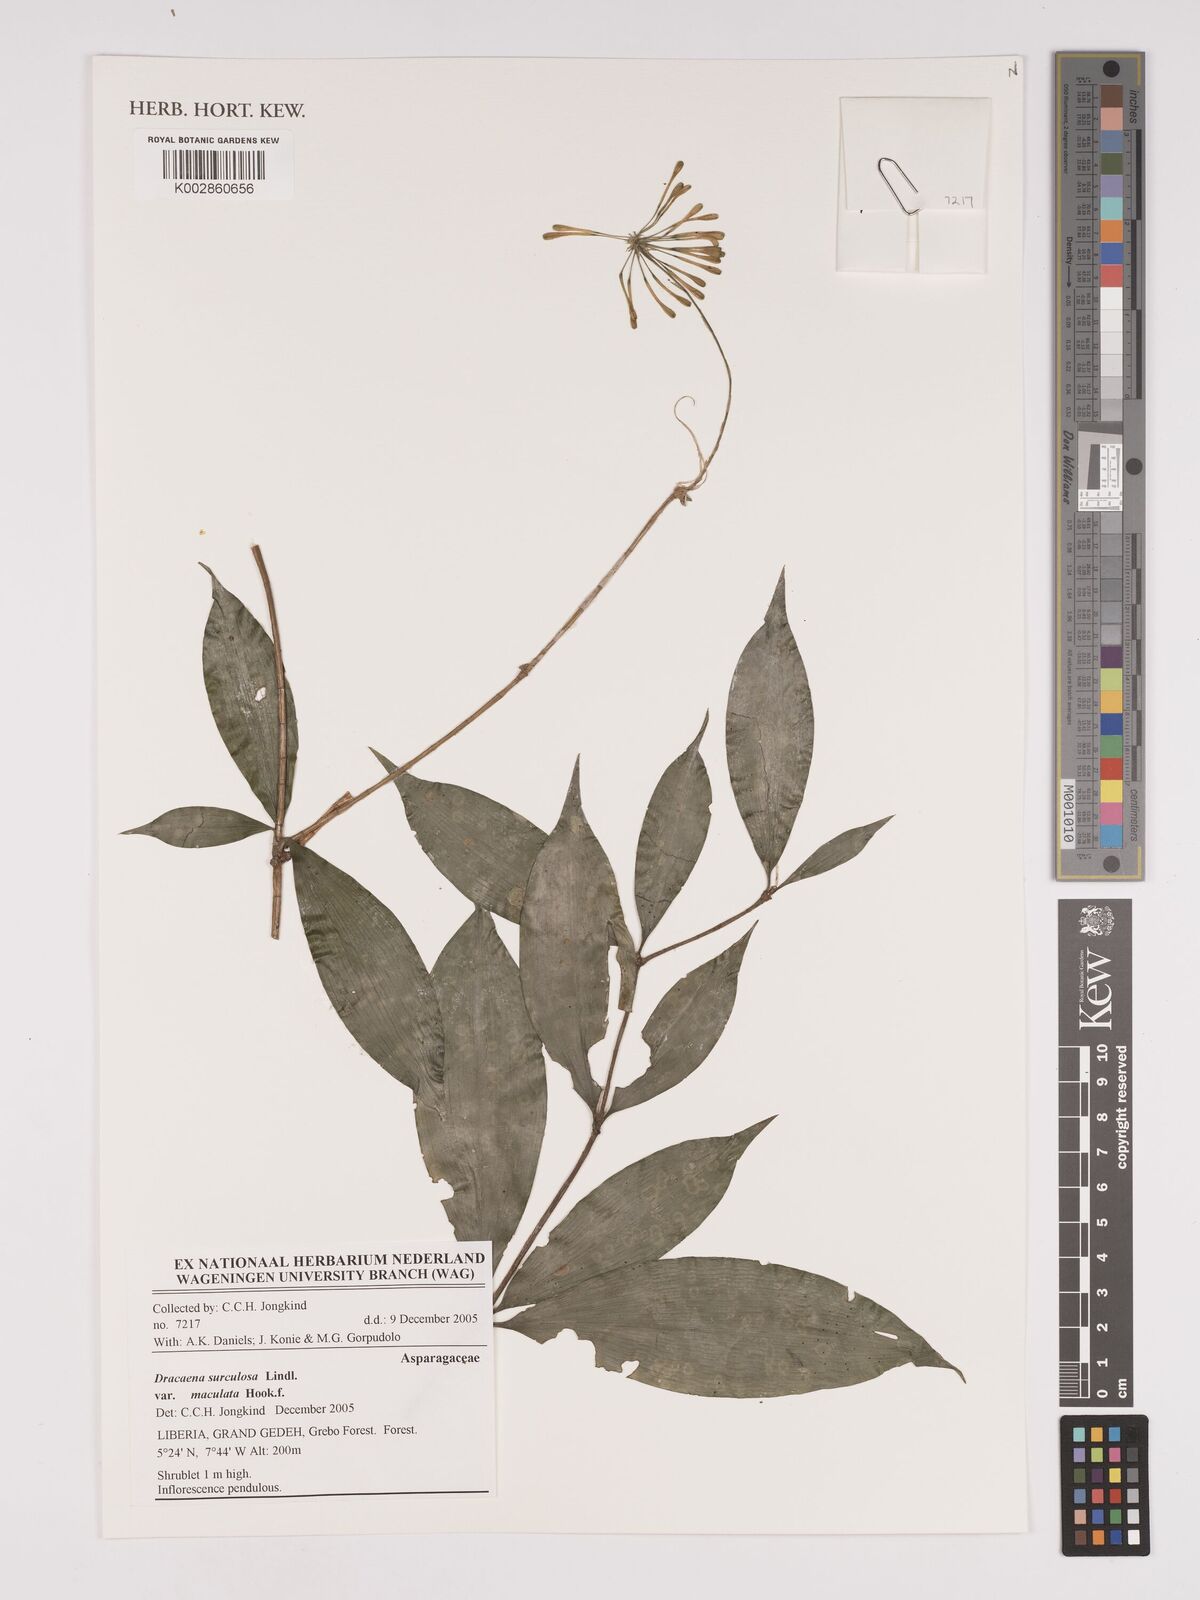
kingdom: Plantae
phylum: Tracheophyta
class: Liliopsida
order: Asparagales
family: Asparagaceae
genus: Dracaena
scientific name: Dracaena surculosa
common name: Spotted dracaena
